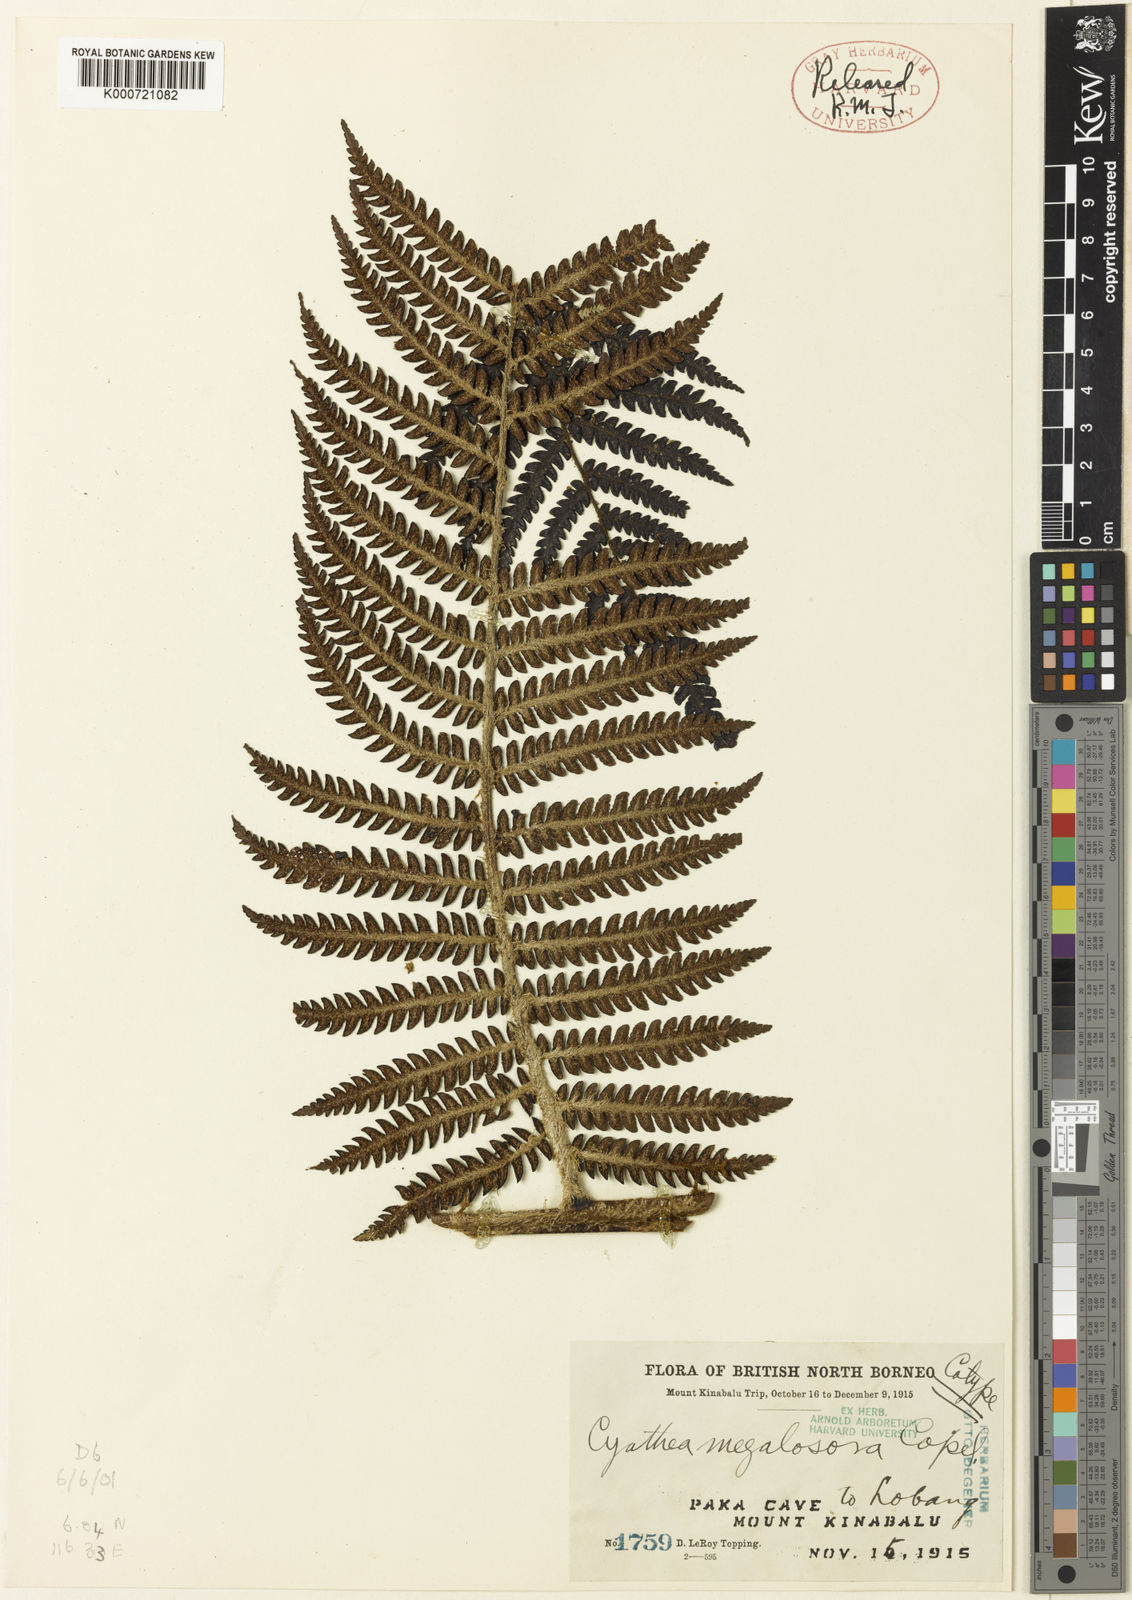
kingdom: Plantae
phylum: Tracheophyta
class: Polypodiopsida
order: Cyatheales
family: Cyatheaceae
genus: Sphaeropteris
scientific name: Sphaeropteris megalosora
